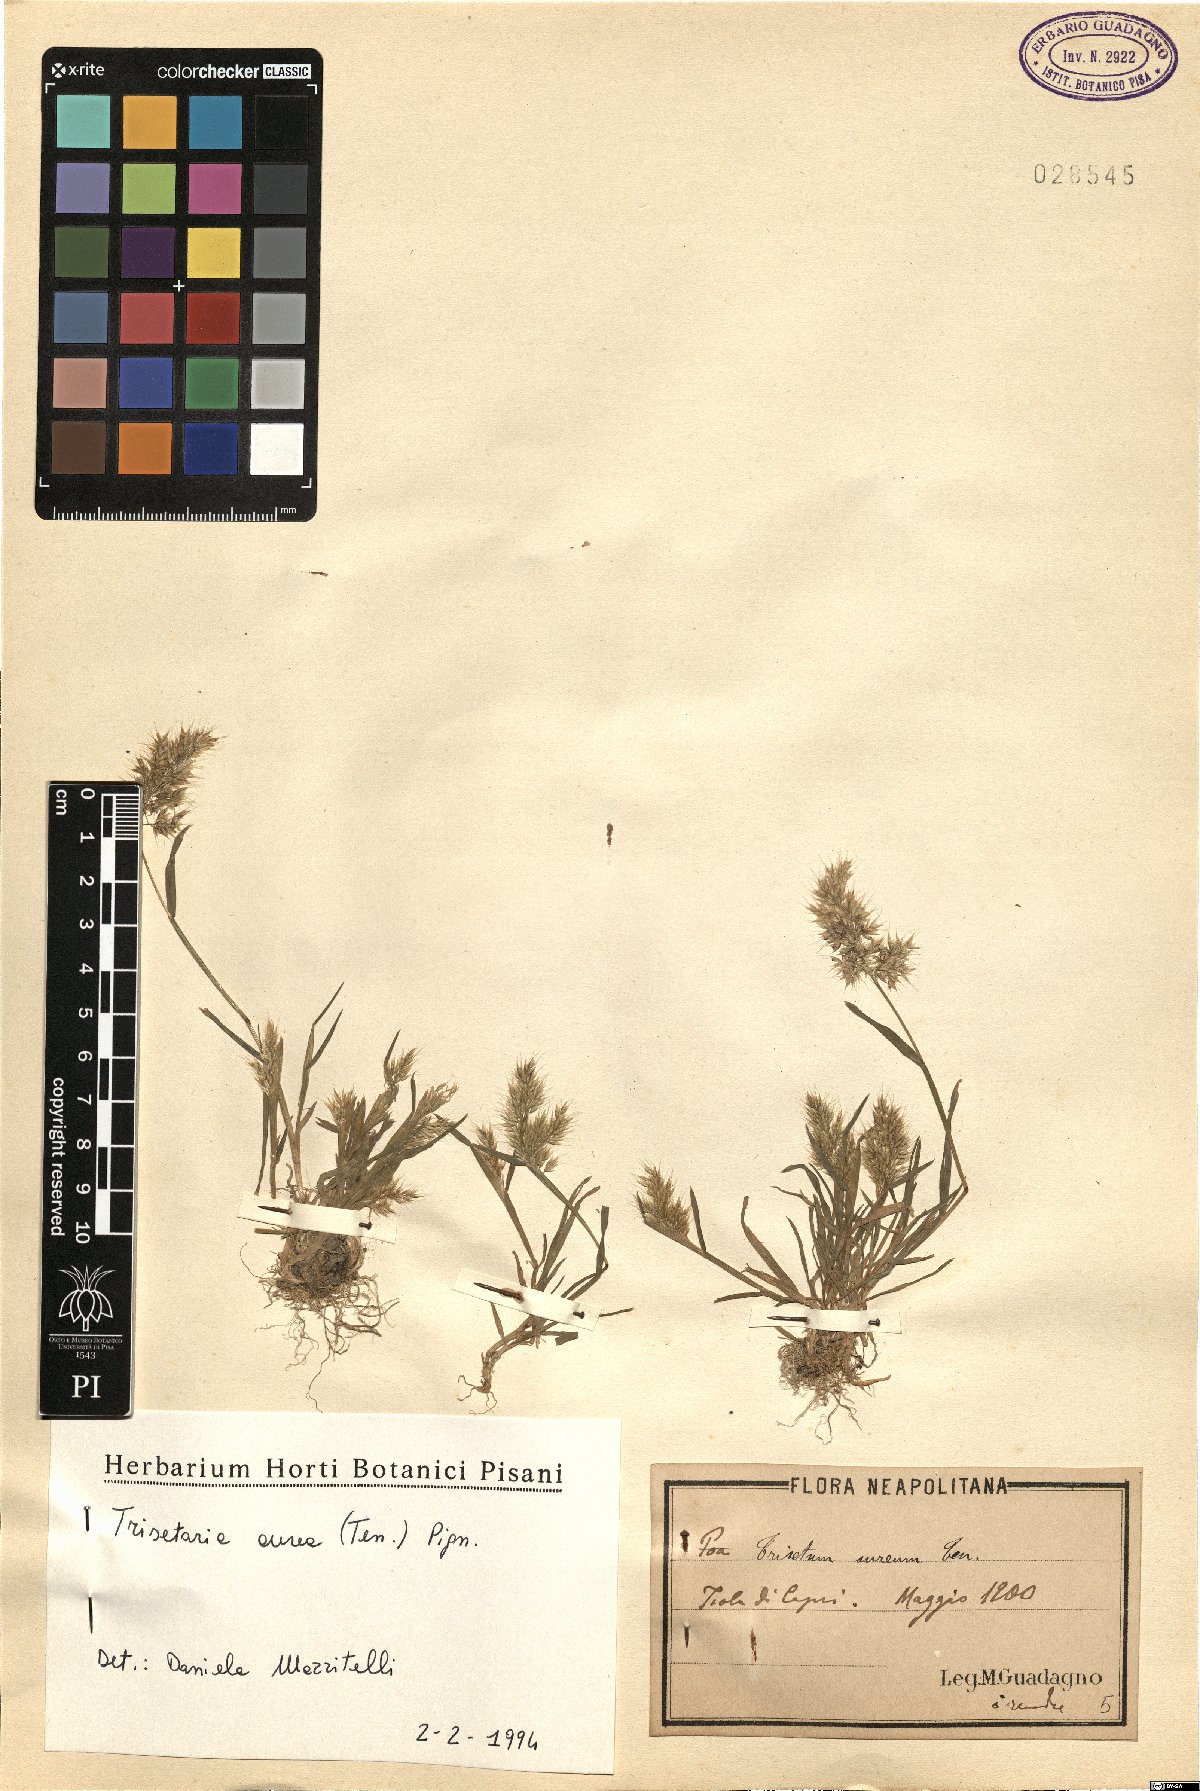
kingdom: Plantae
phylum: Tracheophyta
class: Liliopsida
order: Poales
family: Poaceae
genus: Trisetaria
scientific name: Trisetaria aurea
